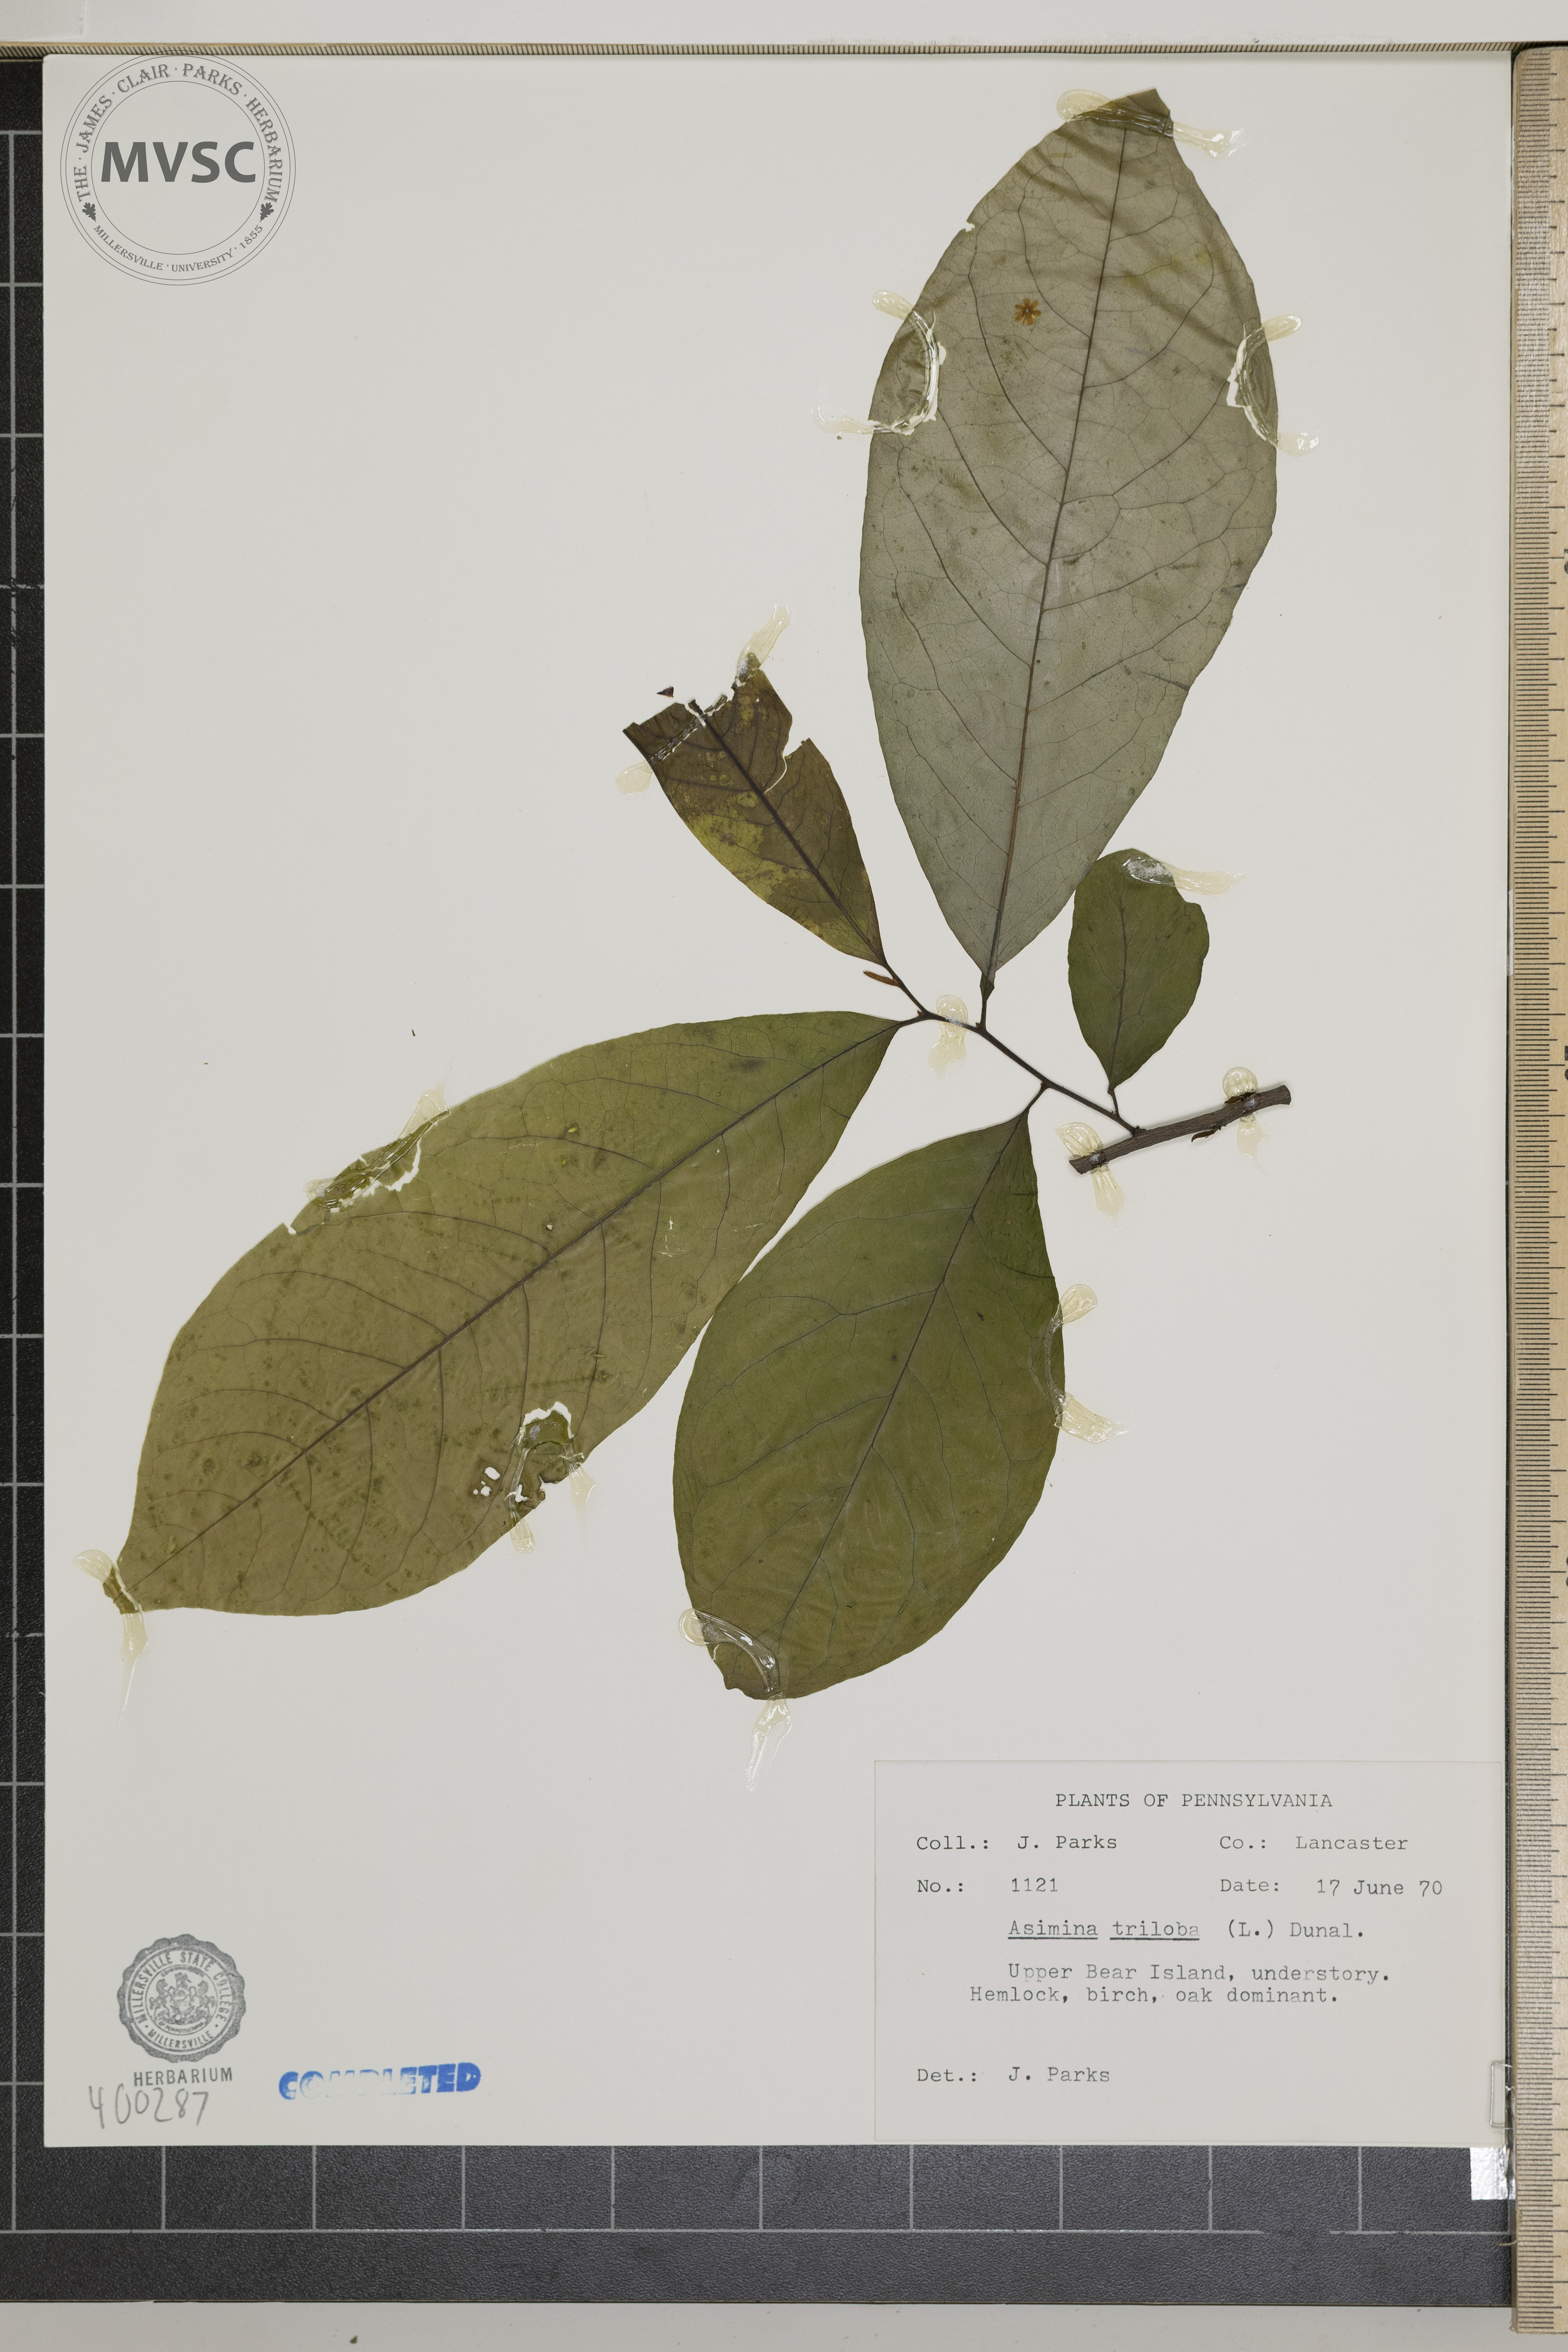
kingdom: Plantae
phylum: Tracheophyta
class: Magnoliopsida
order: Magnoliales
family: Annonaceae
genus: Asimina
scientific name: Asimina triloba
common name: pawpaw
